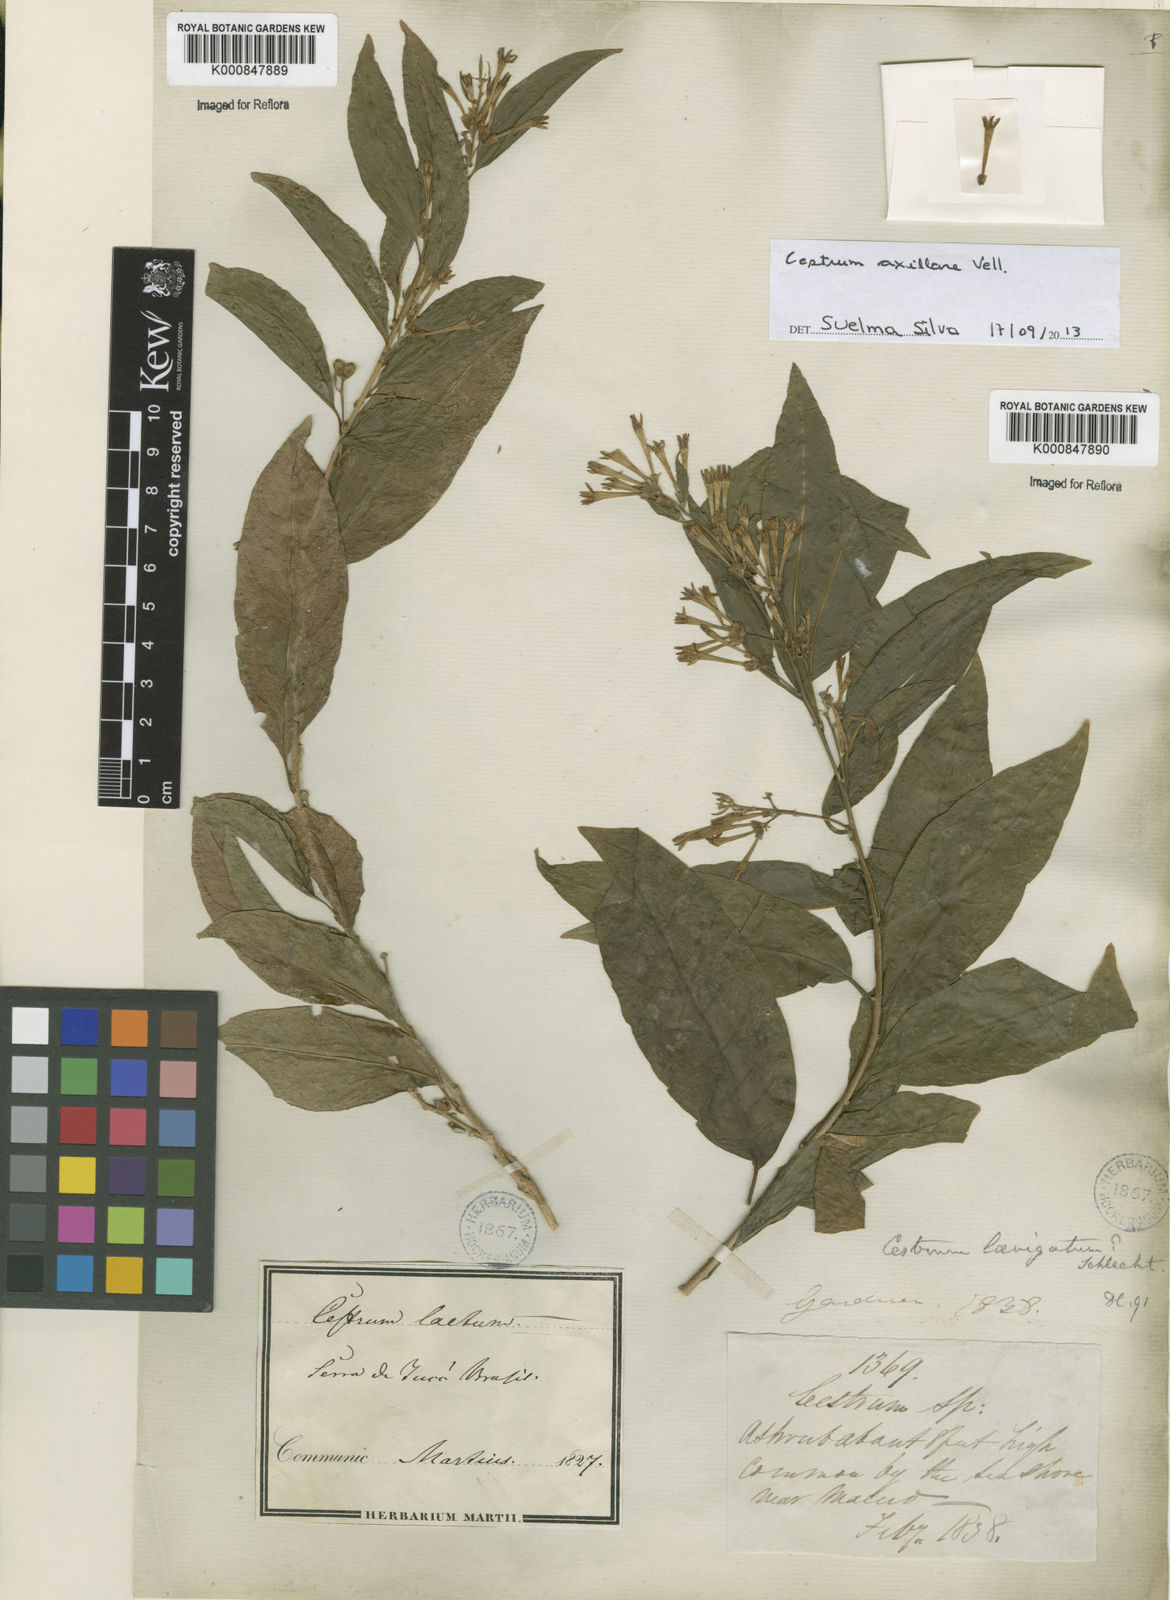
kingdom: Plantae
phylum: Tracheophyta
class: Magnoliopsida
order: Solanales
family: Solanaceae
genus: Cestrum
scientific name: Cestrum laevigatum
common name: Inkberry
